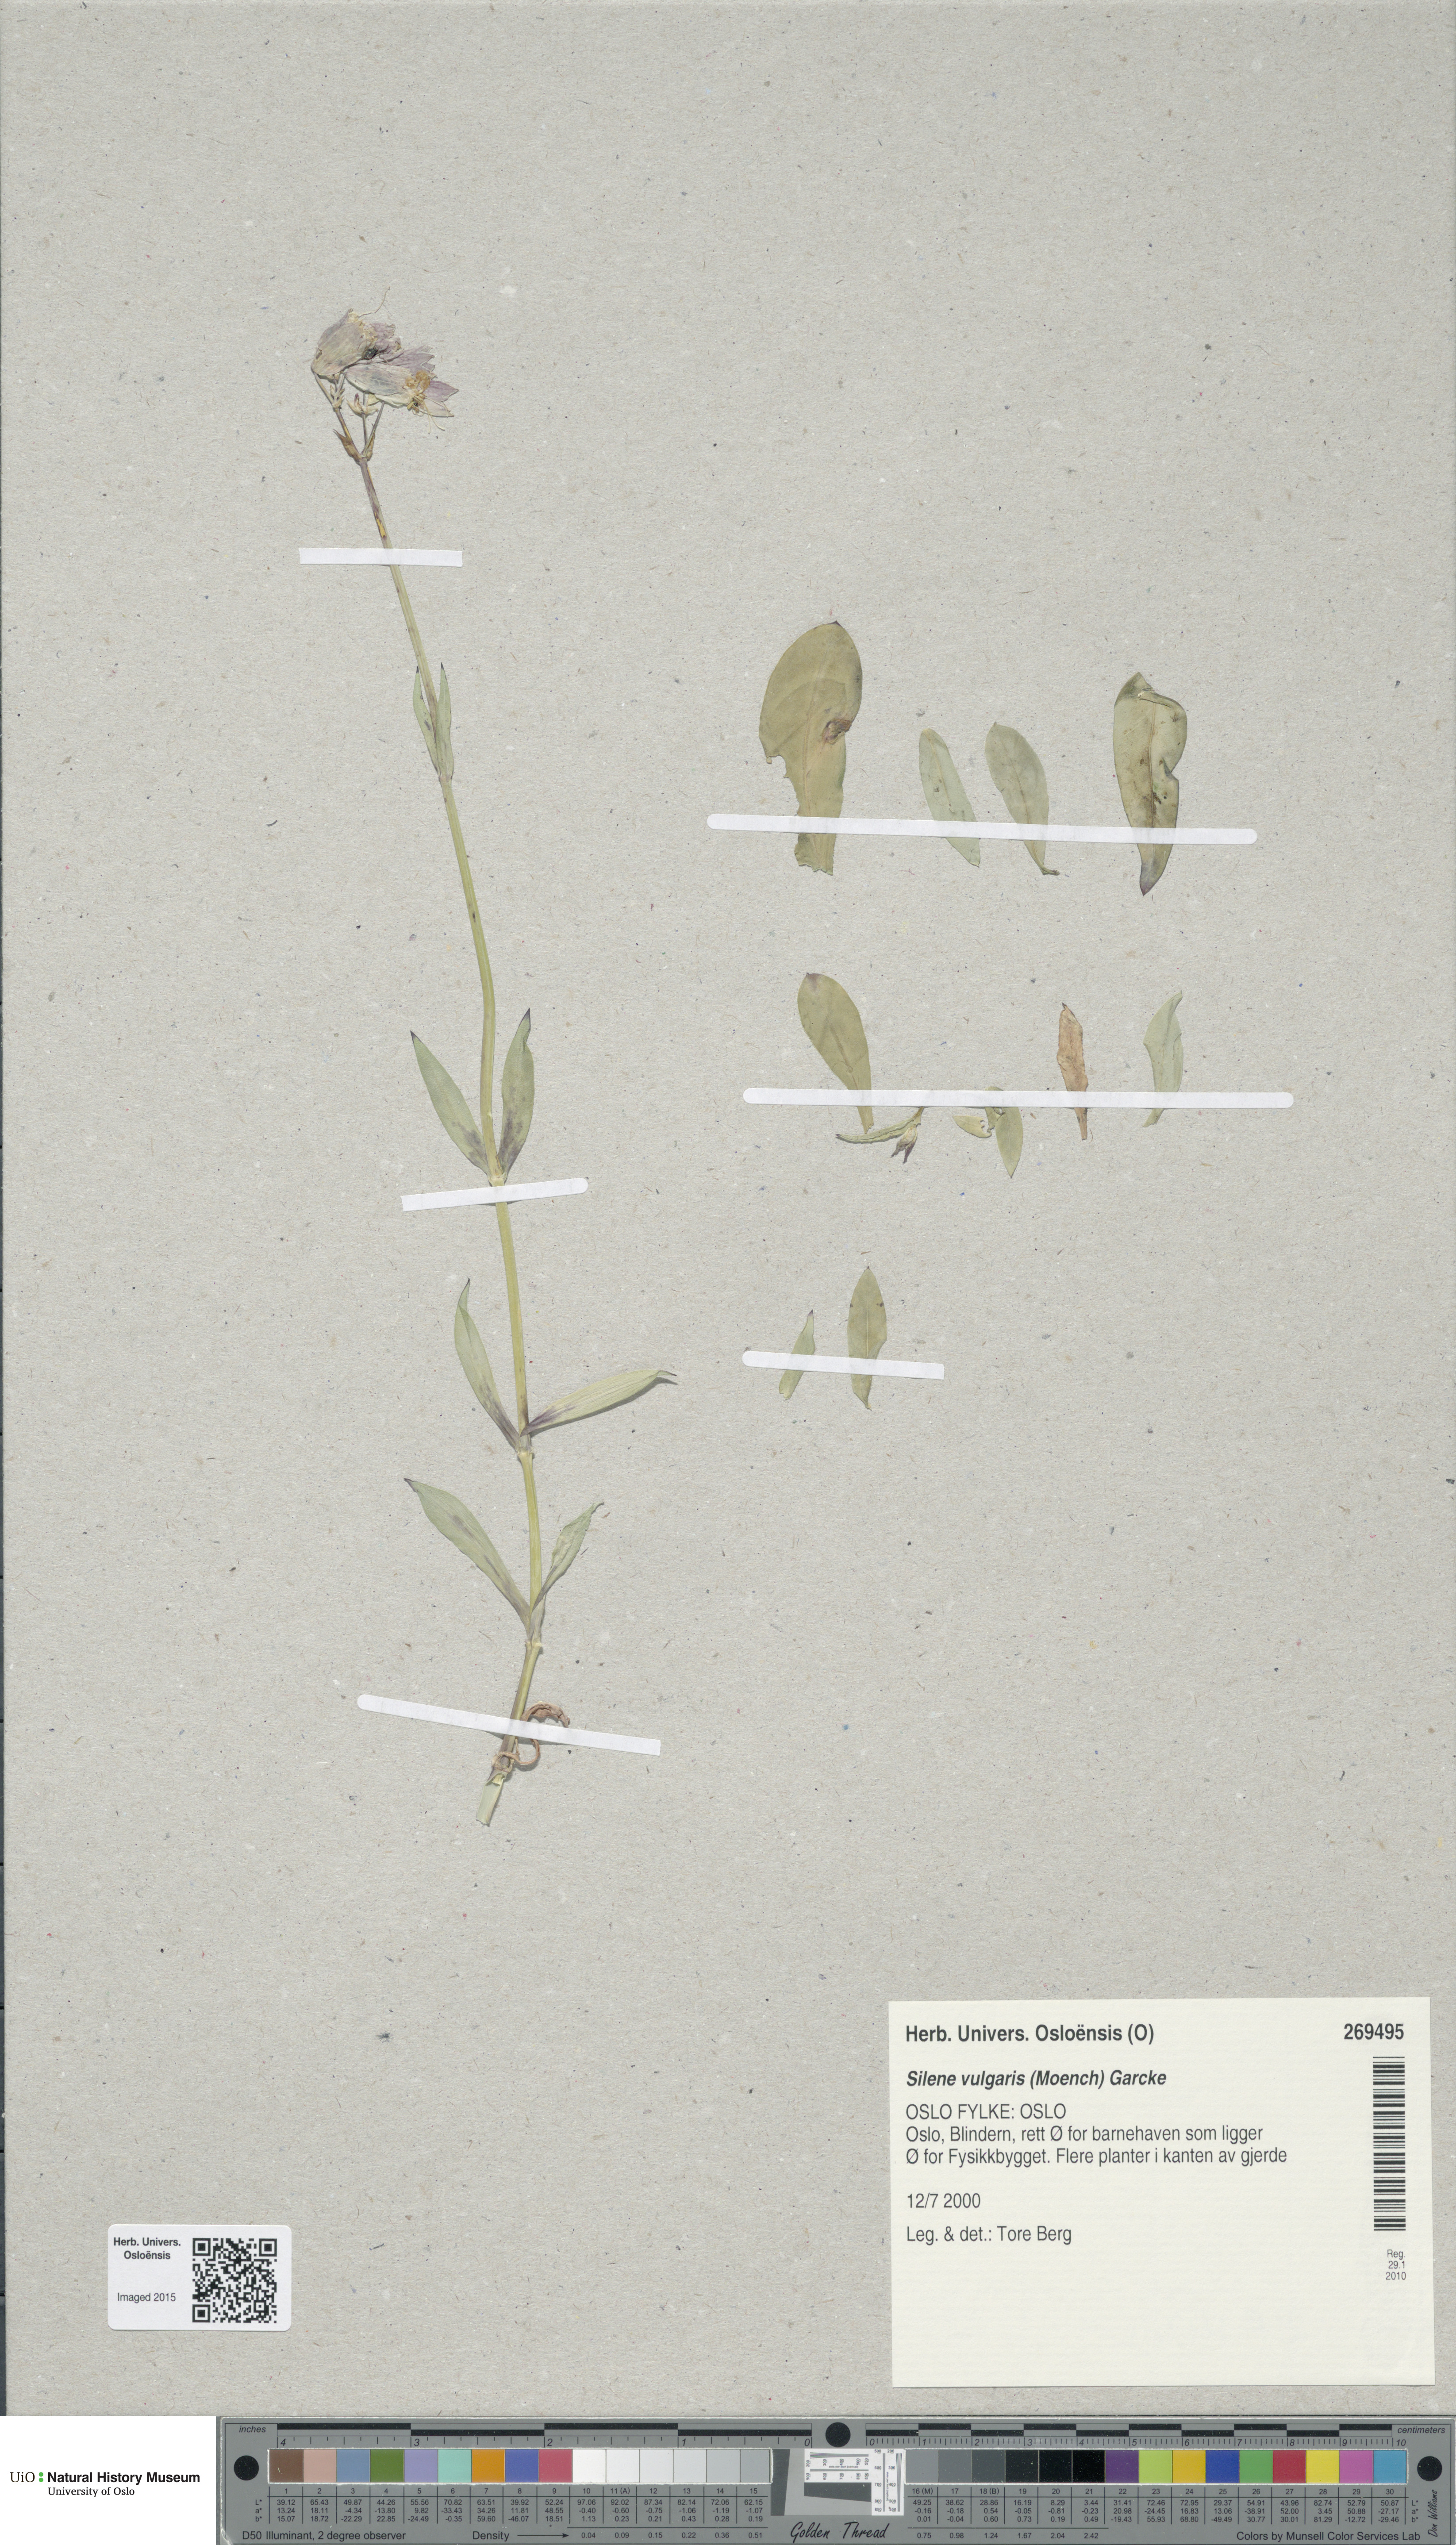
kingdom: Plantae
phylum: Tracheophyta
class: Magnoliopsida
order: Caryophyllales
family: Caryophyllaceae
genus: Silene
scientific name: Silene vulgaris
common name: Bladder campion
